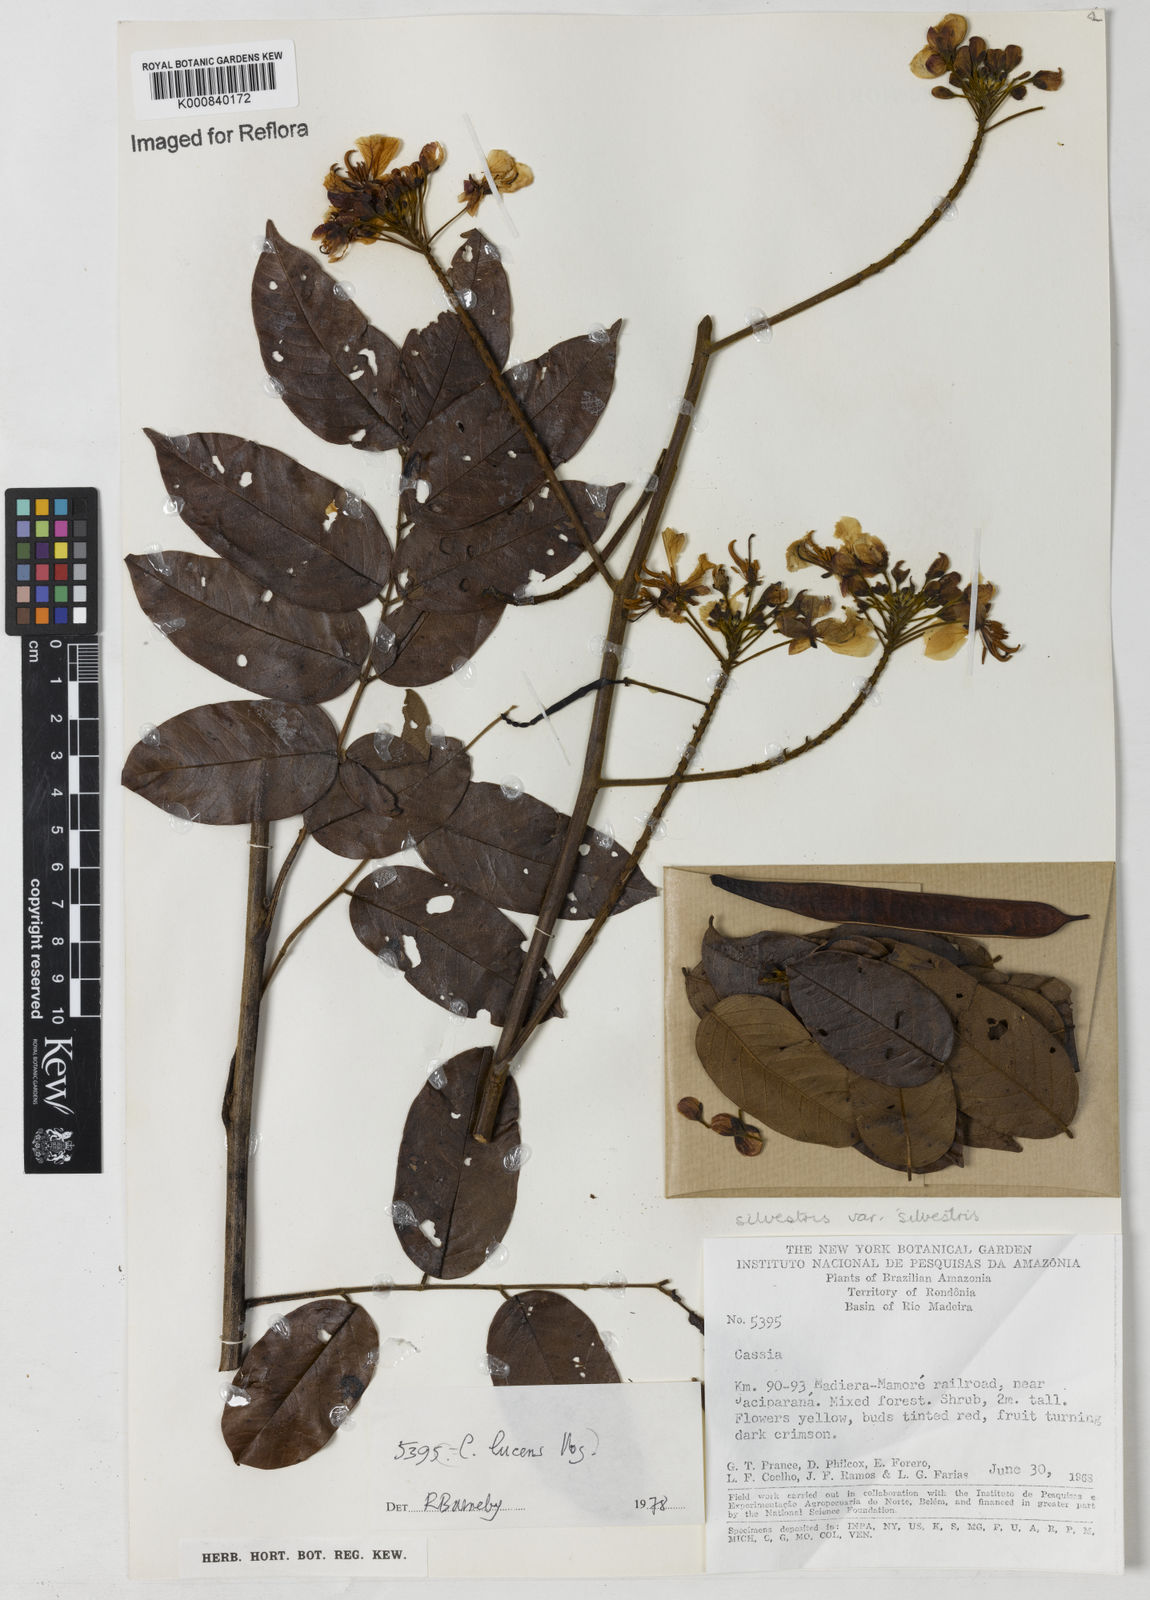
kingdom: Plantae
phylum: Tracheophyta
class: Magnoliopsida
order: Fabales
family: Fabaceae
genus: Senna
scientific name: Senna silvestris
